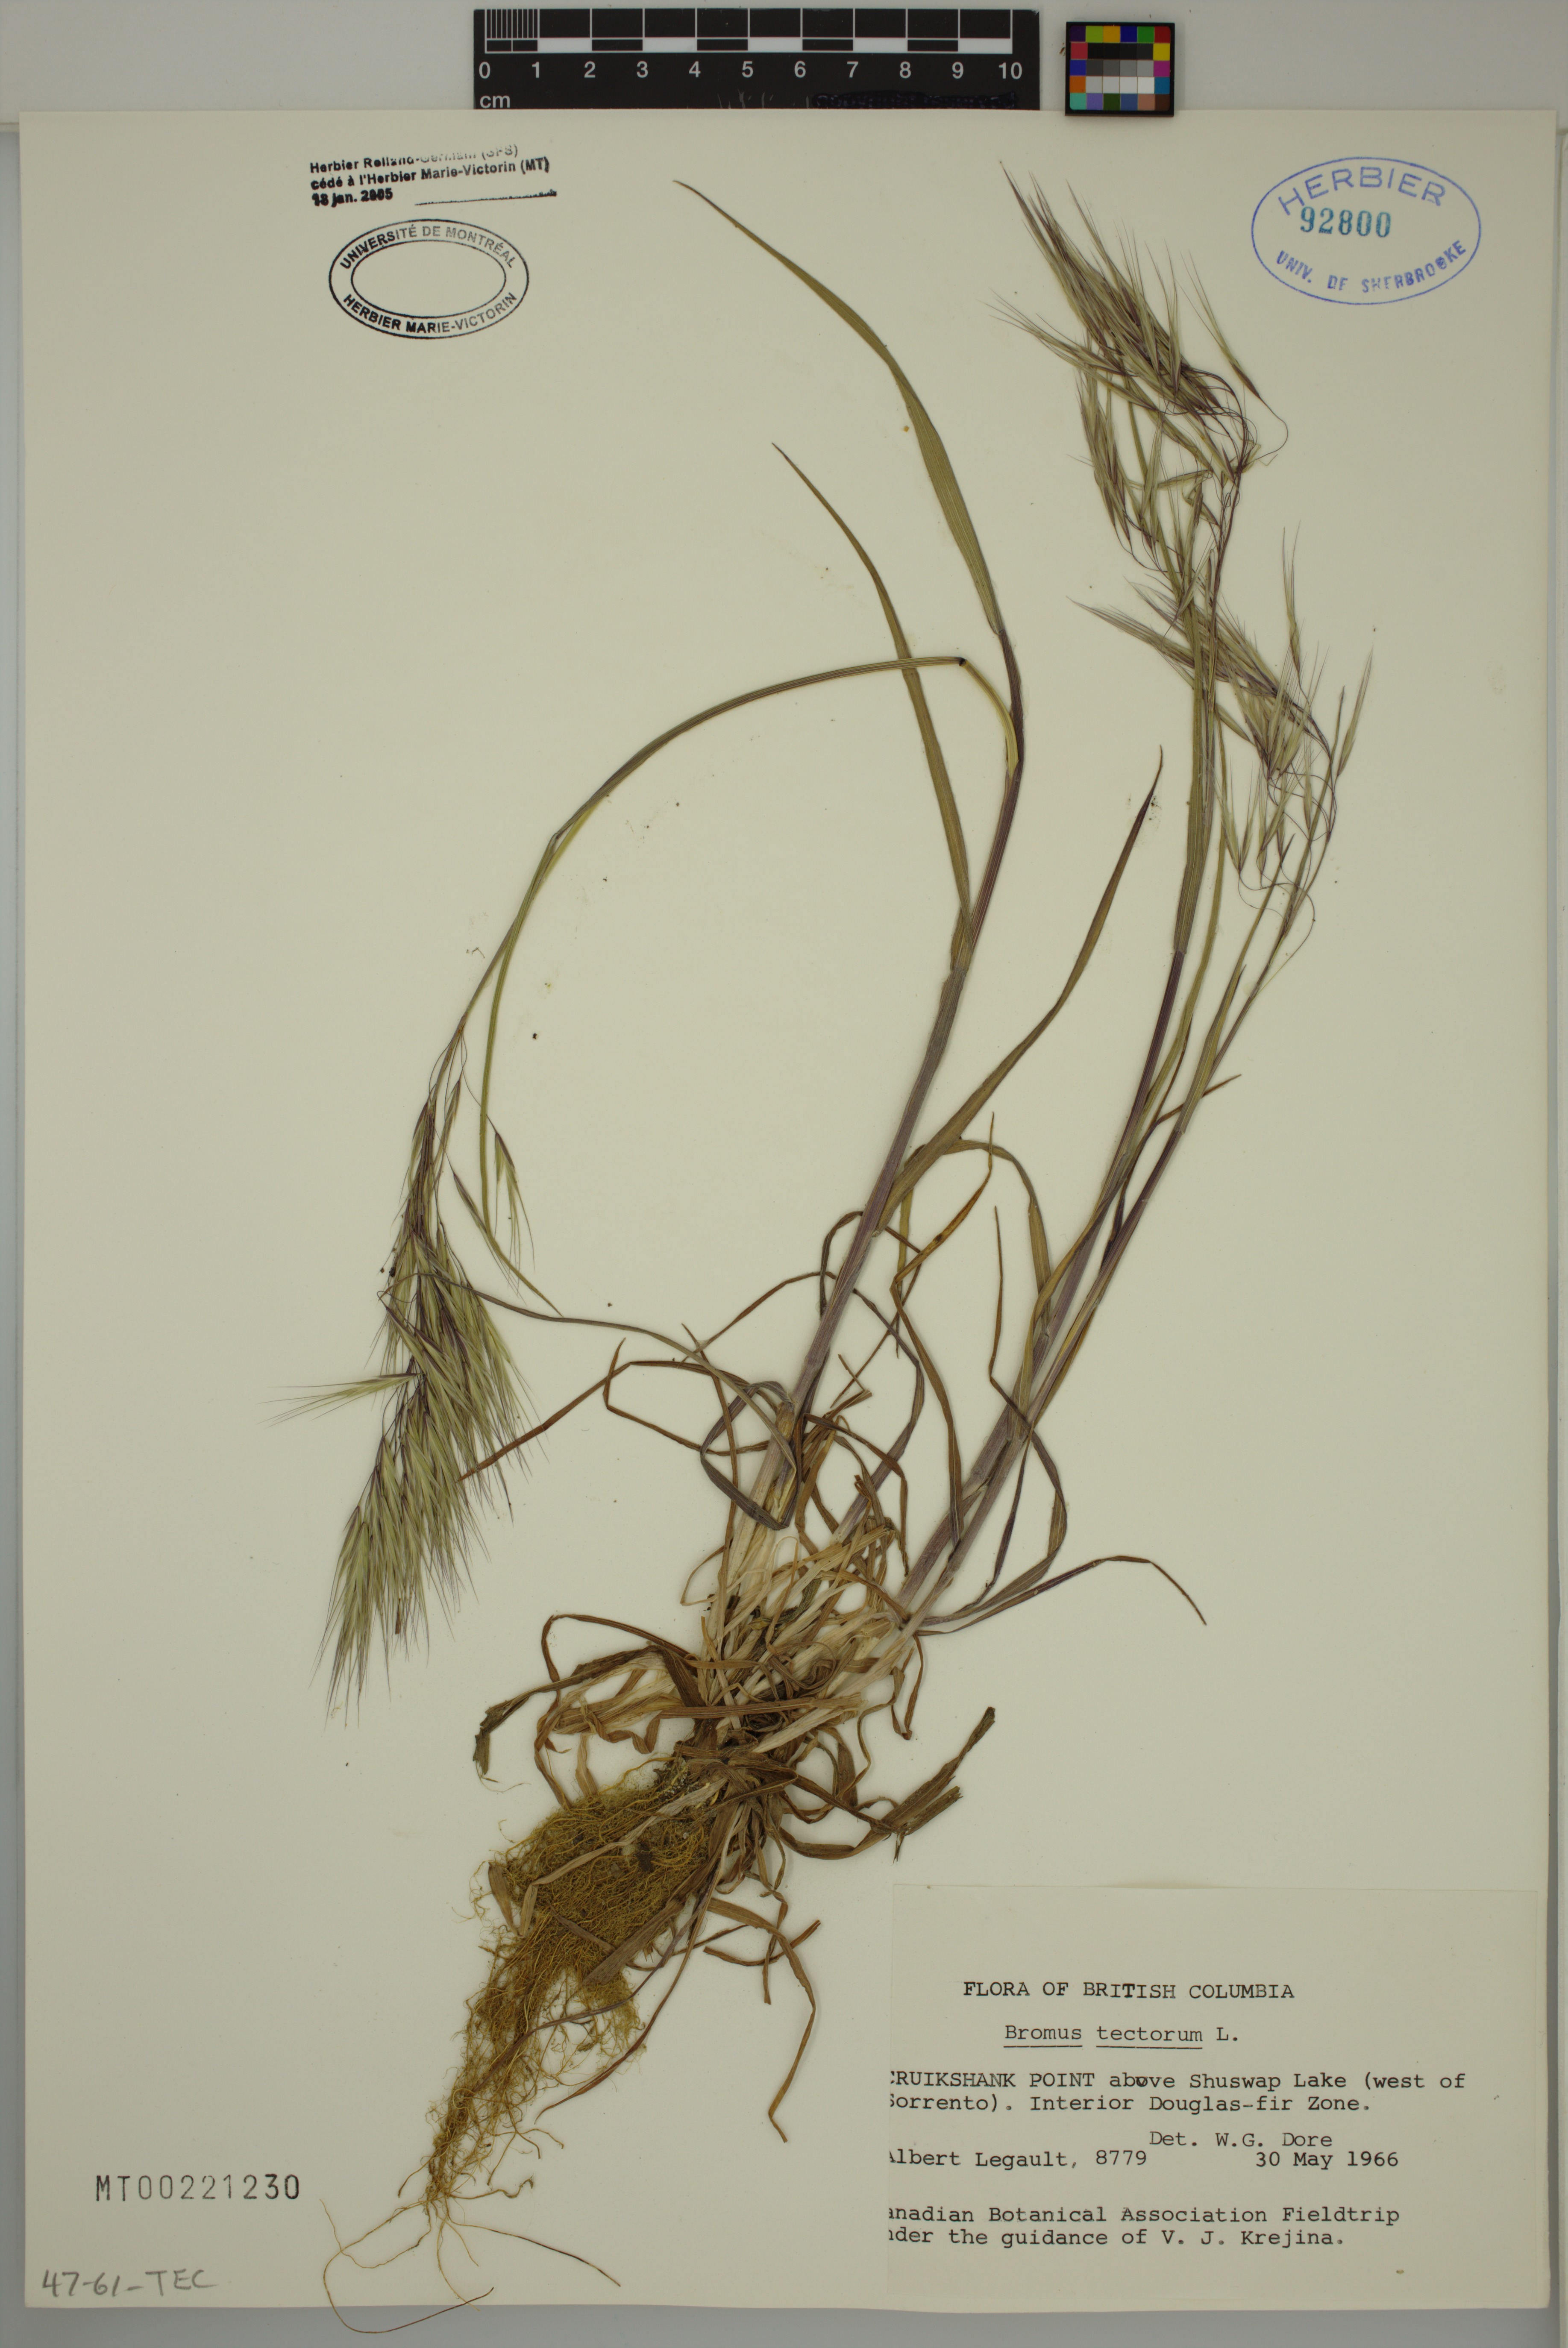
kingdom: Plantae
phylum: Tracheophyta
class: Liliopsida
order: Poales
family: Poaceae
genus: Bromus
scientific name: Bromus tectorum
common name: Cheatgrass
